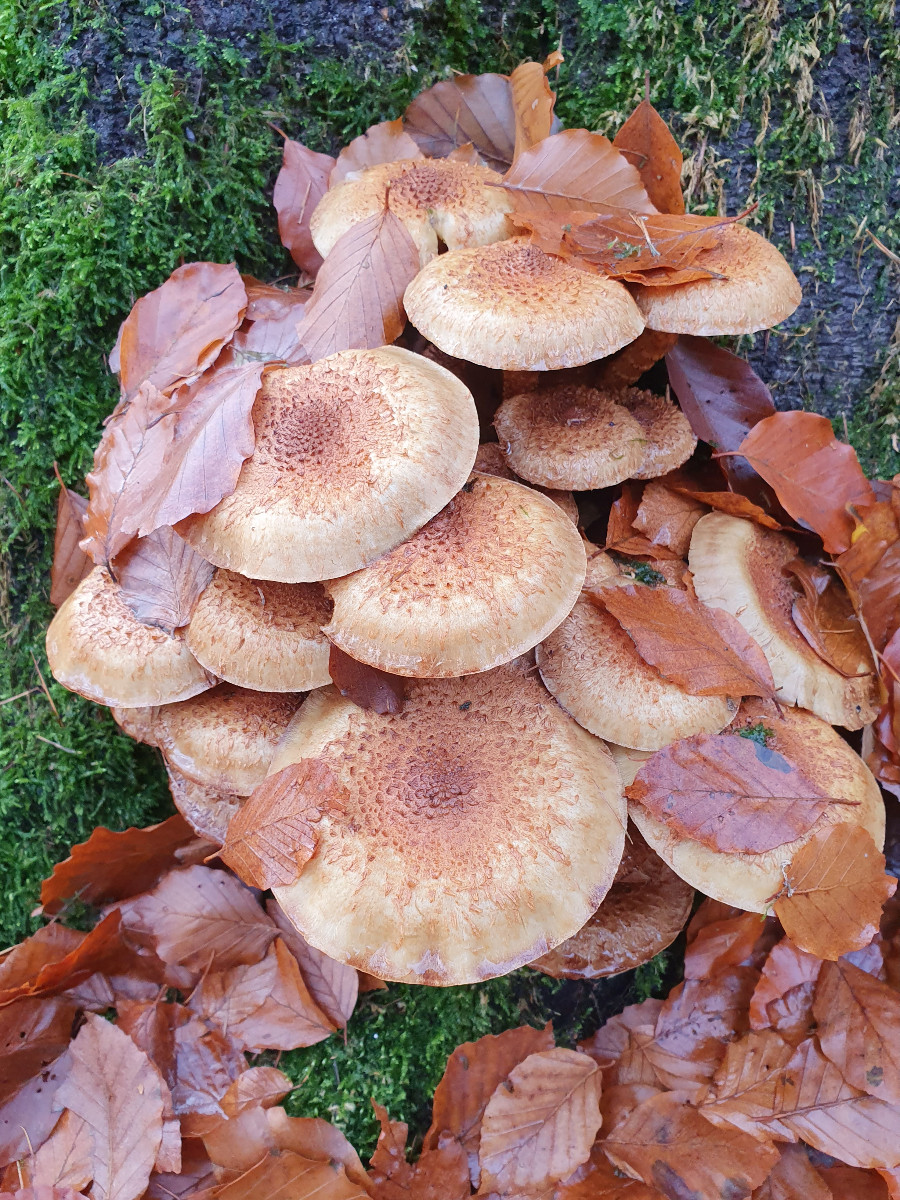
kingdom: Fungi
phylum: Basidiomycota
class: Agaricomycetes
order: Agaricales
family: Strophariaceae
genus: Pholiota
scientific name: Pholiota squarrosa
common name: krumskællet skælhat
